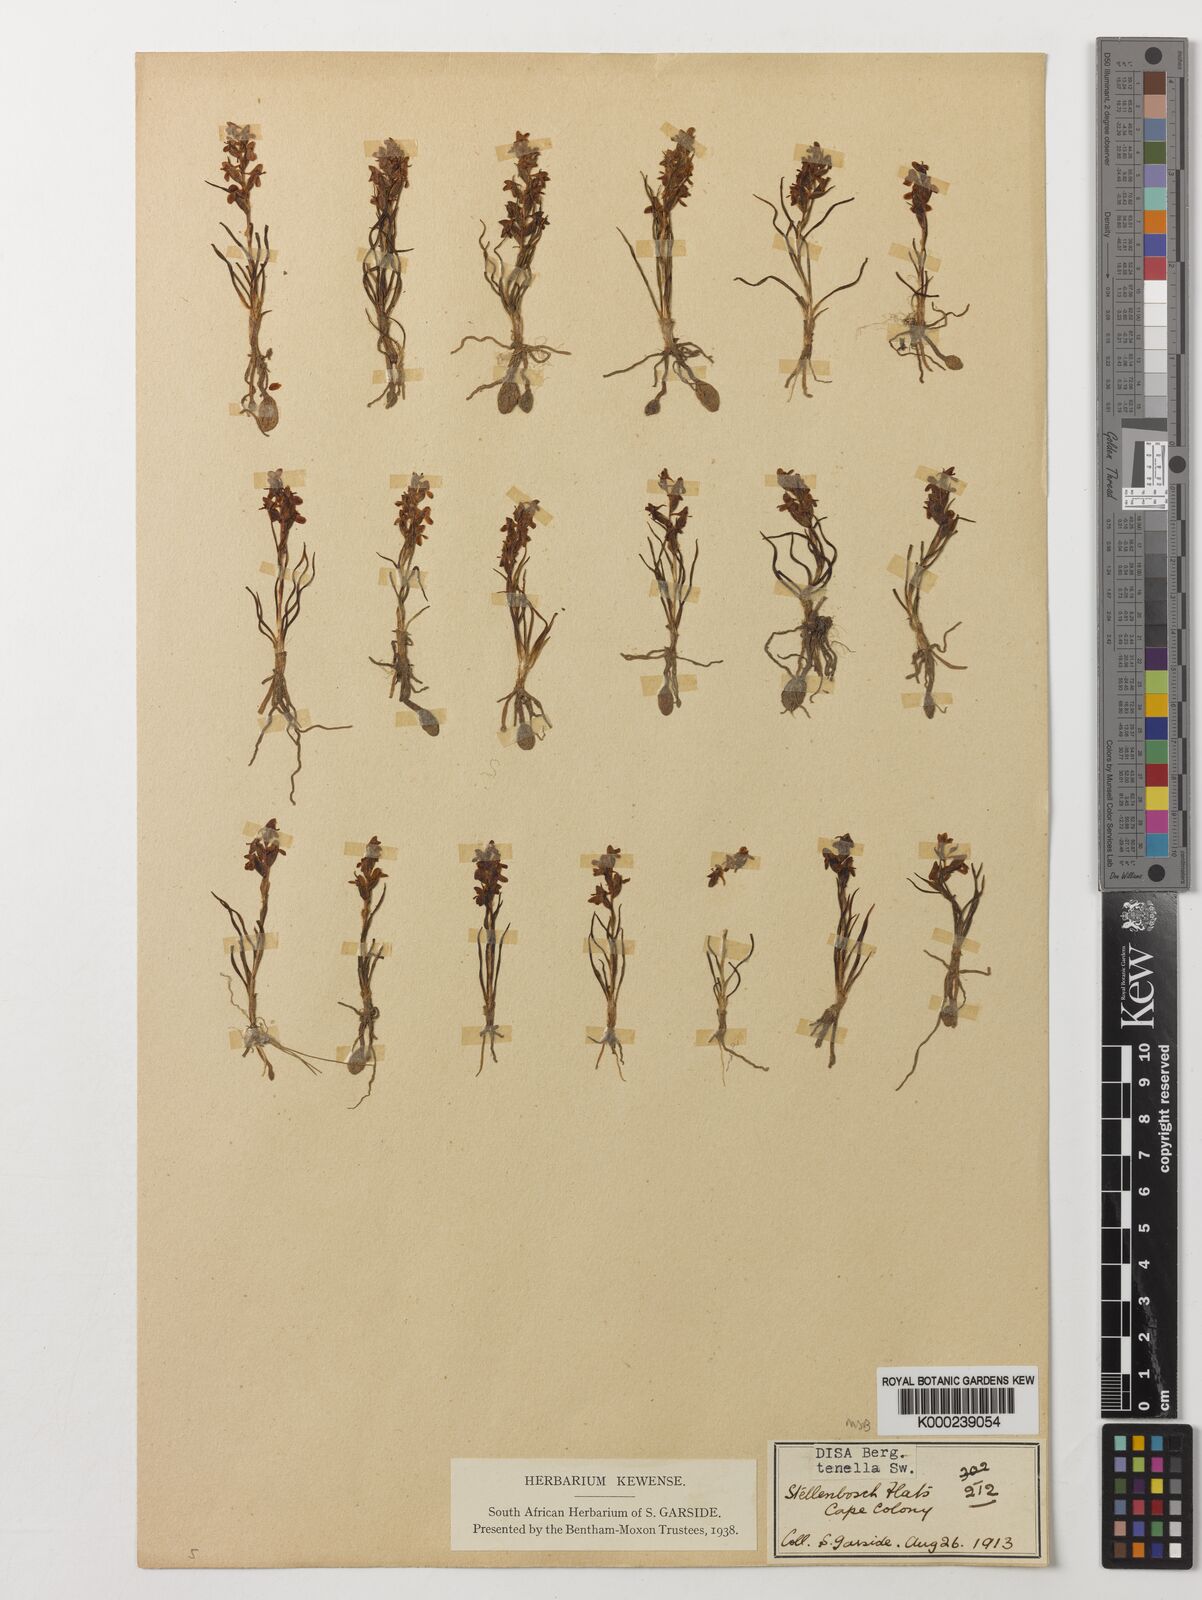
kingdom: Plantae
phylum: Tracheophyta
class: Liliopsida
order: Asparagales
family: Orchidaceae
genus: Disa
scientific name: Disa tenella
